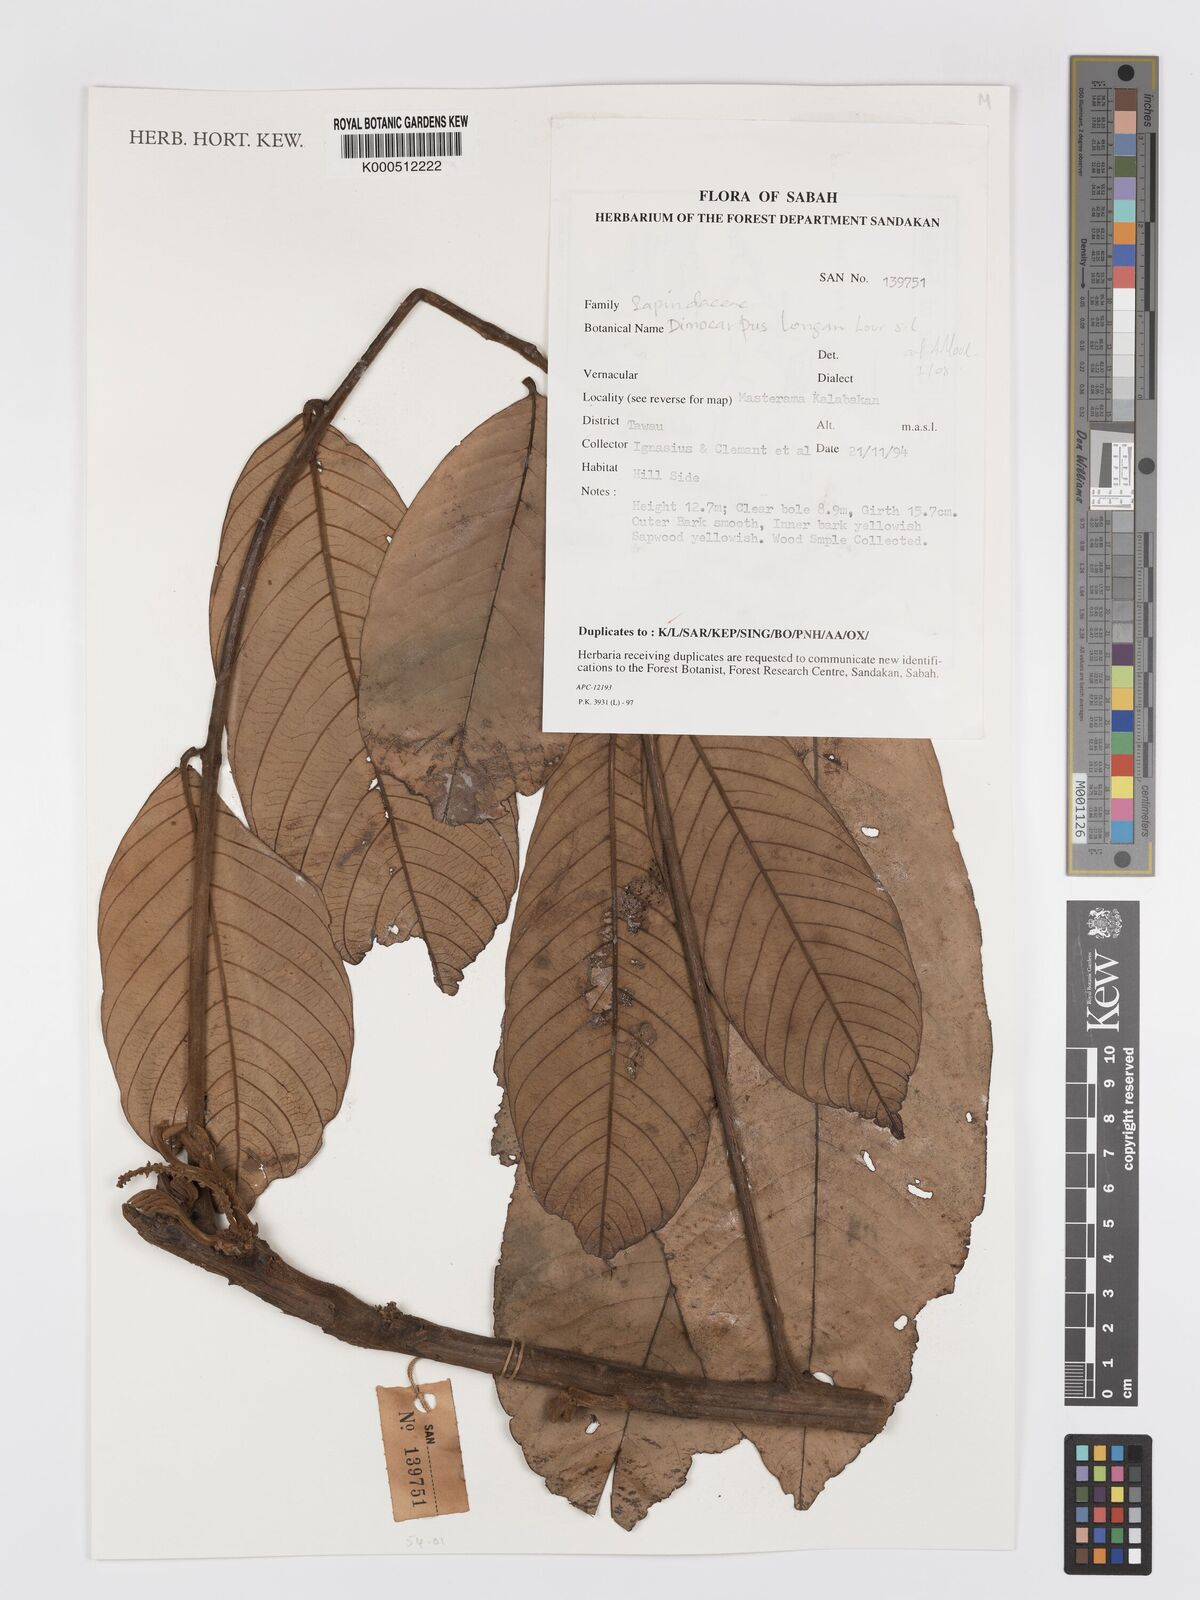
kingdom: Plantae
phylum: Tracheophyta
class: Magnoliopsida
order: Sapindales
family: Sapindaceae
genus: Dimocarpus
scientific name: Dimocarpus longan
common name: Longan
